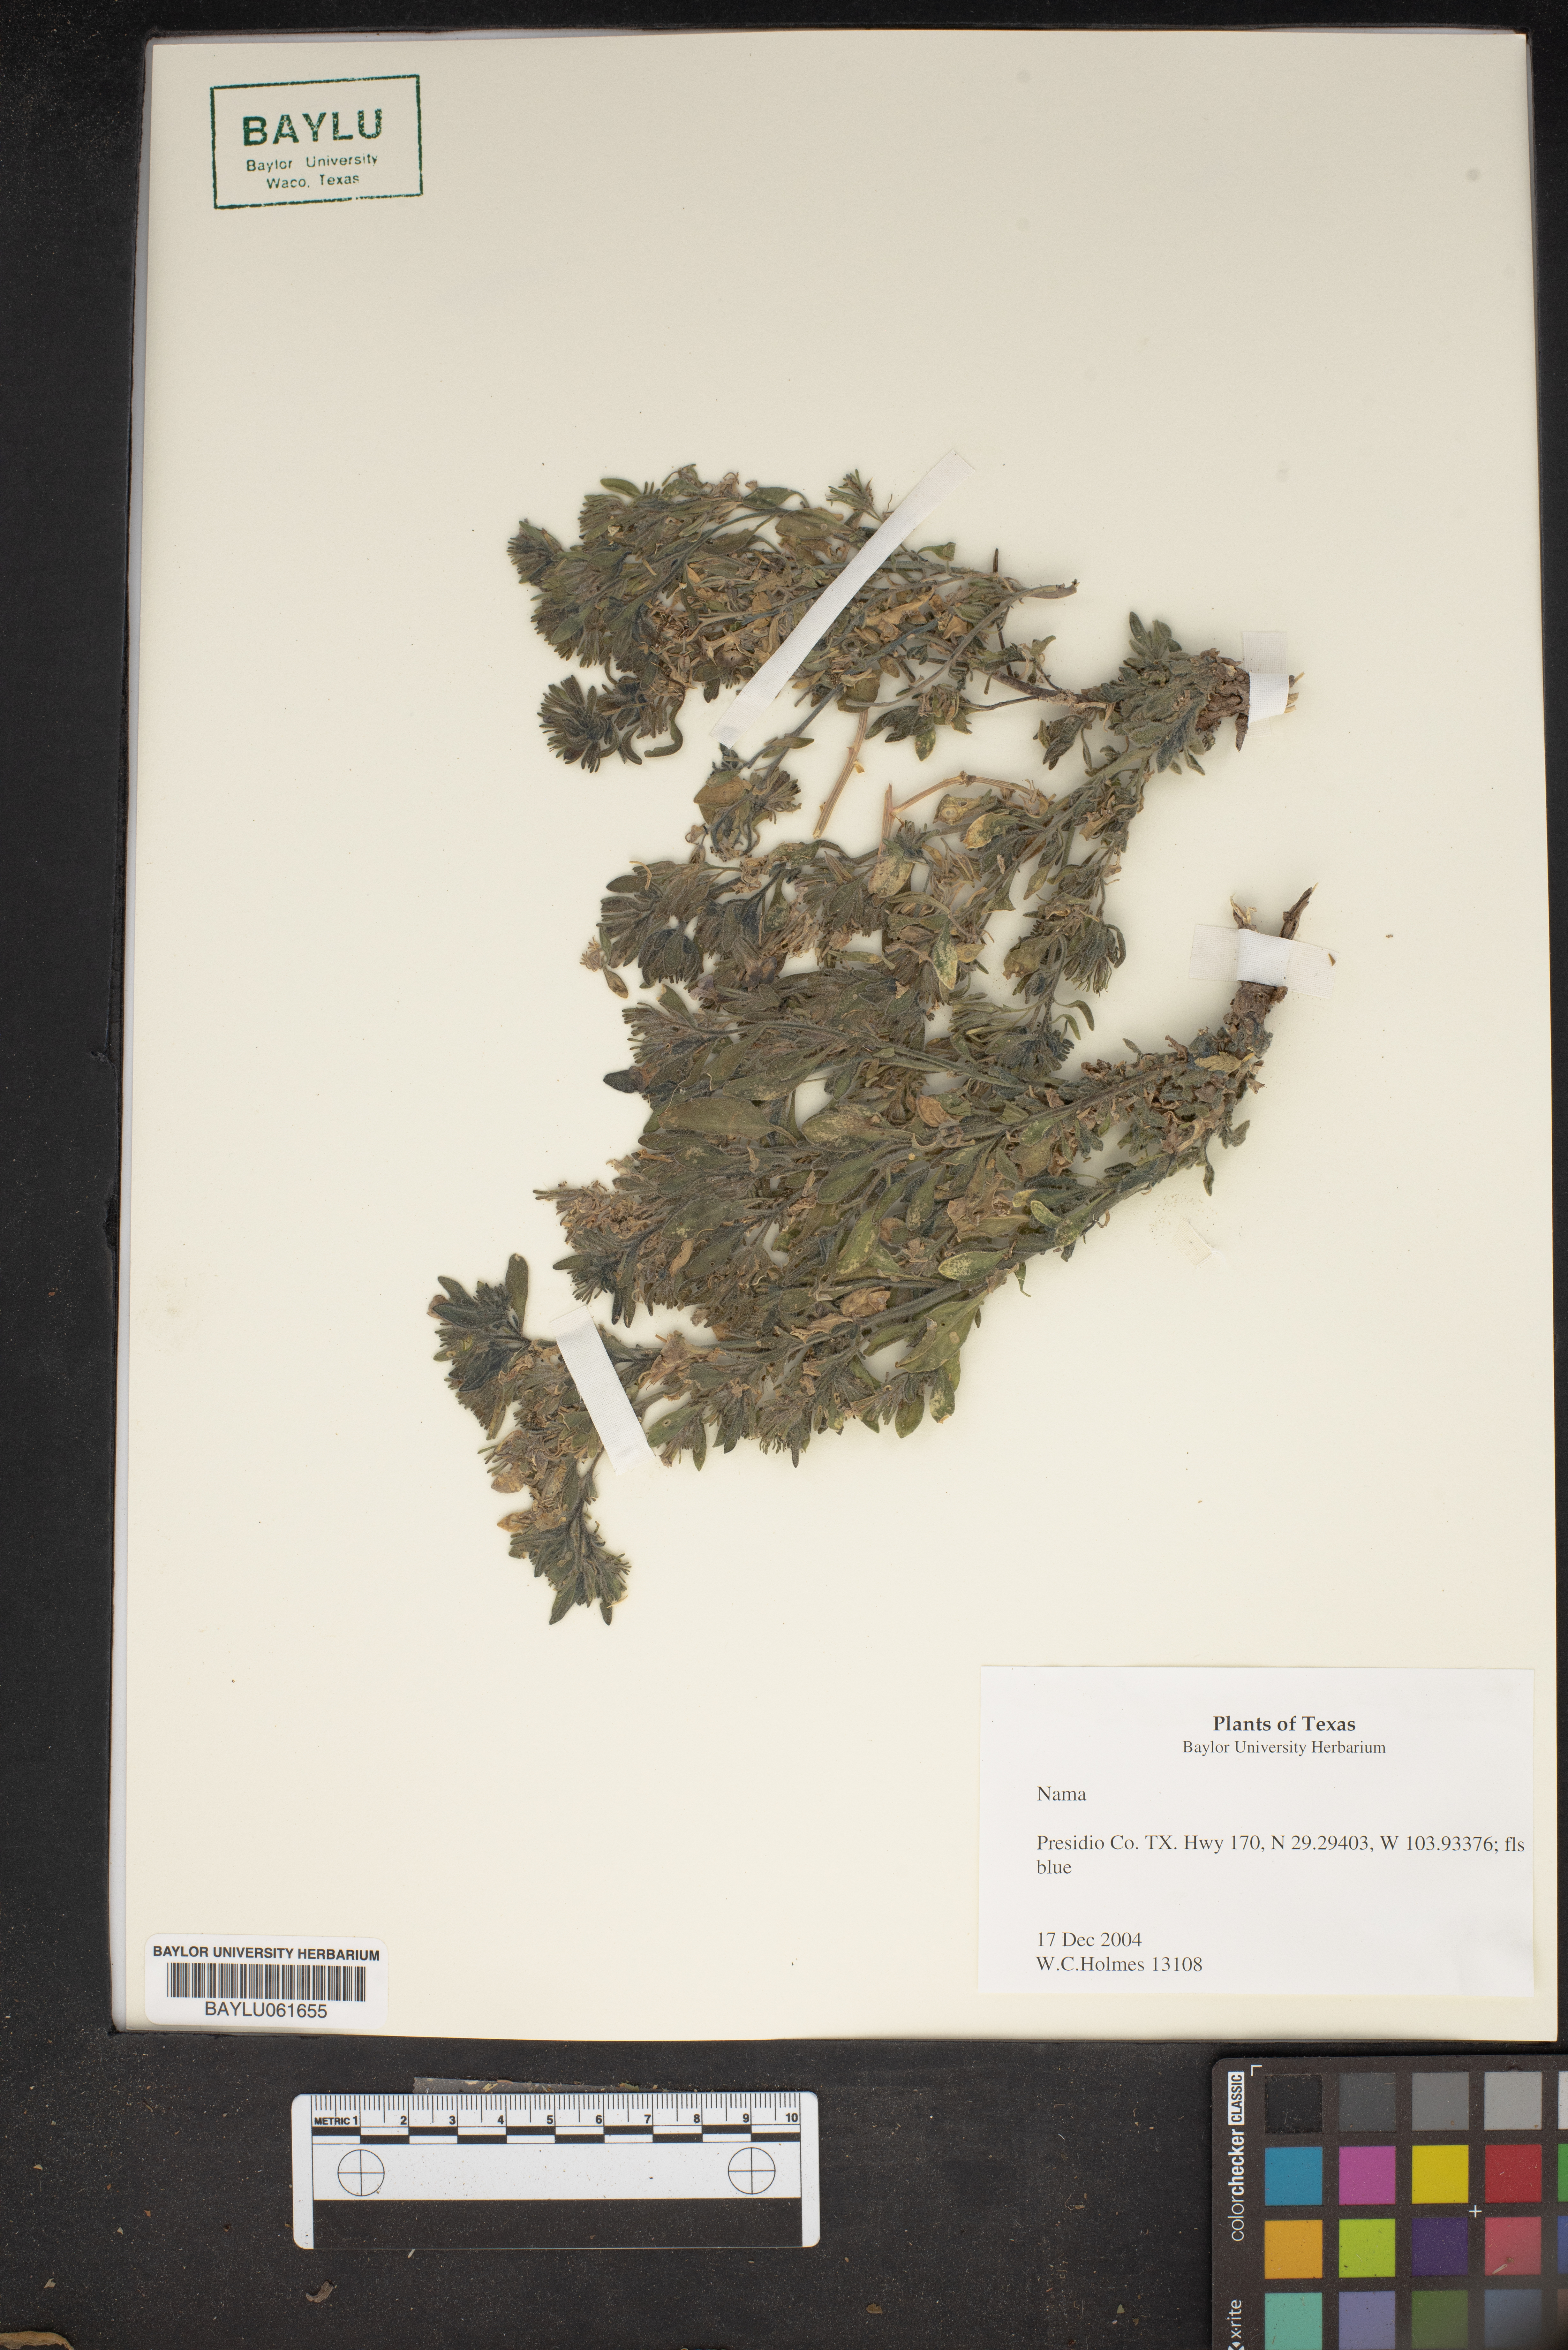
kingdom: Plantae
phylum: Tracheophyta
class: Magnoliopsida
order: Boraginales
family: Namaceae
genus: Nama
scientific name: Nama
